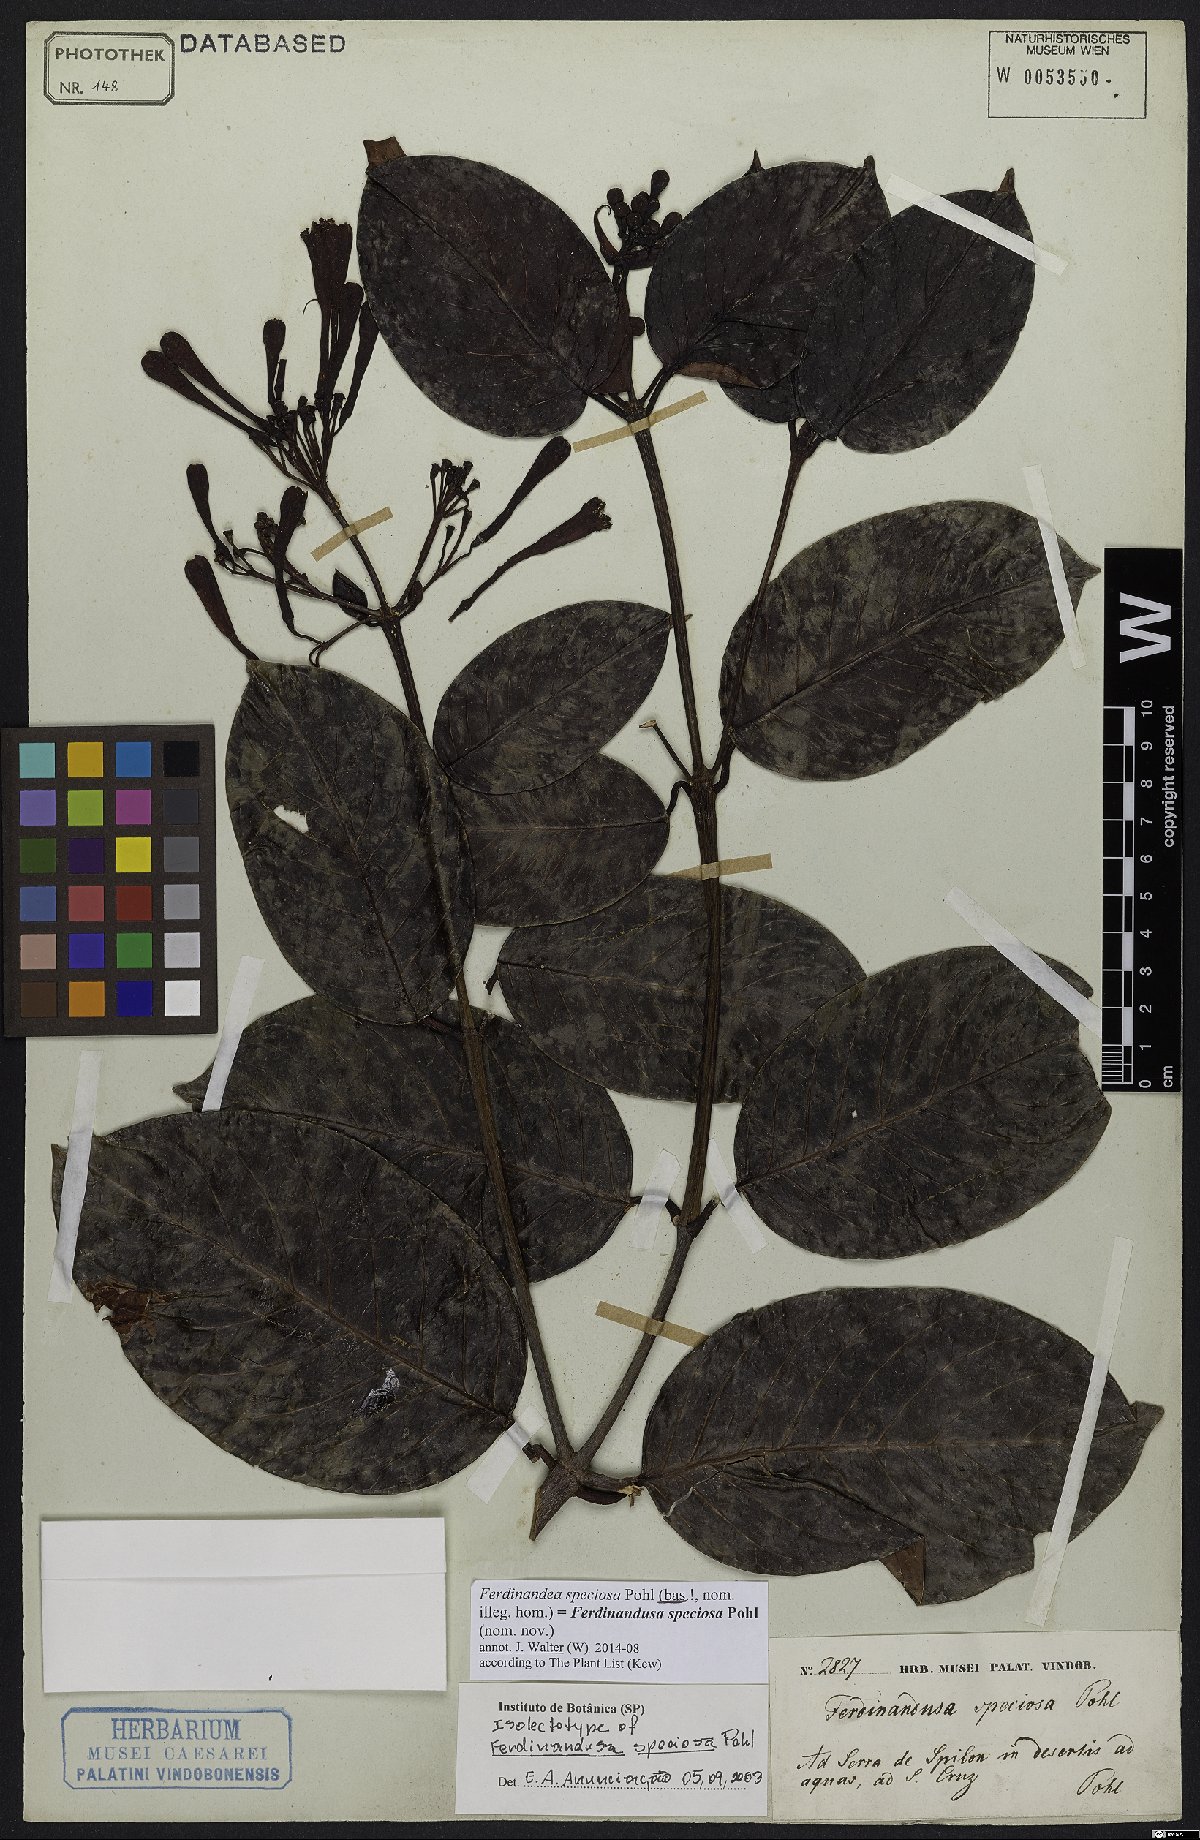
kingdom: Plantae
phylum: Tracheophyta
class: Magnoliopsida
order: Gentianales
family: Rubiaceae
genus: Ferdinandusa
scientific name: Ferdinandusa speciosa
